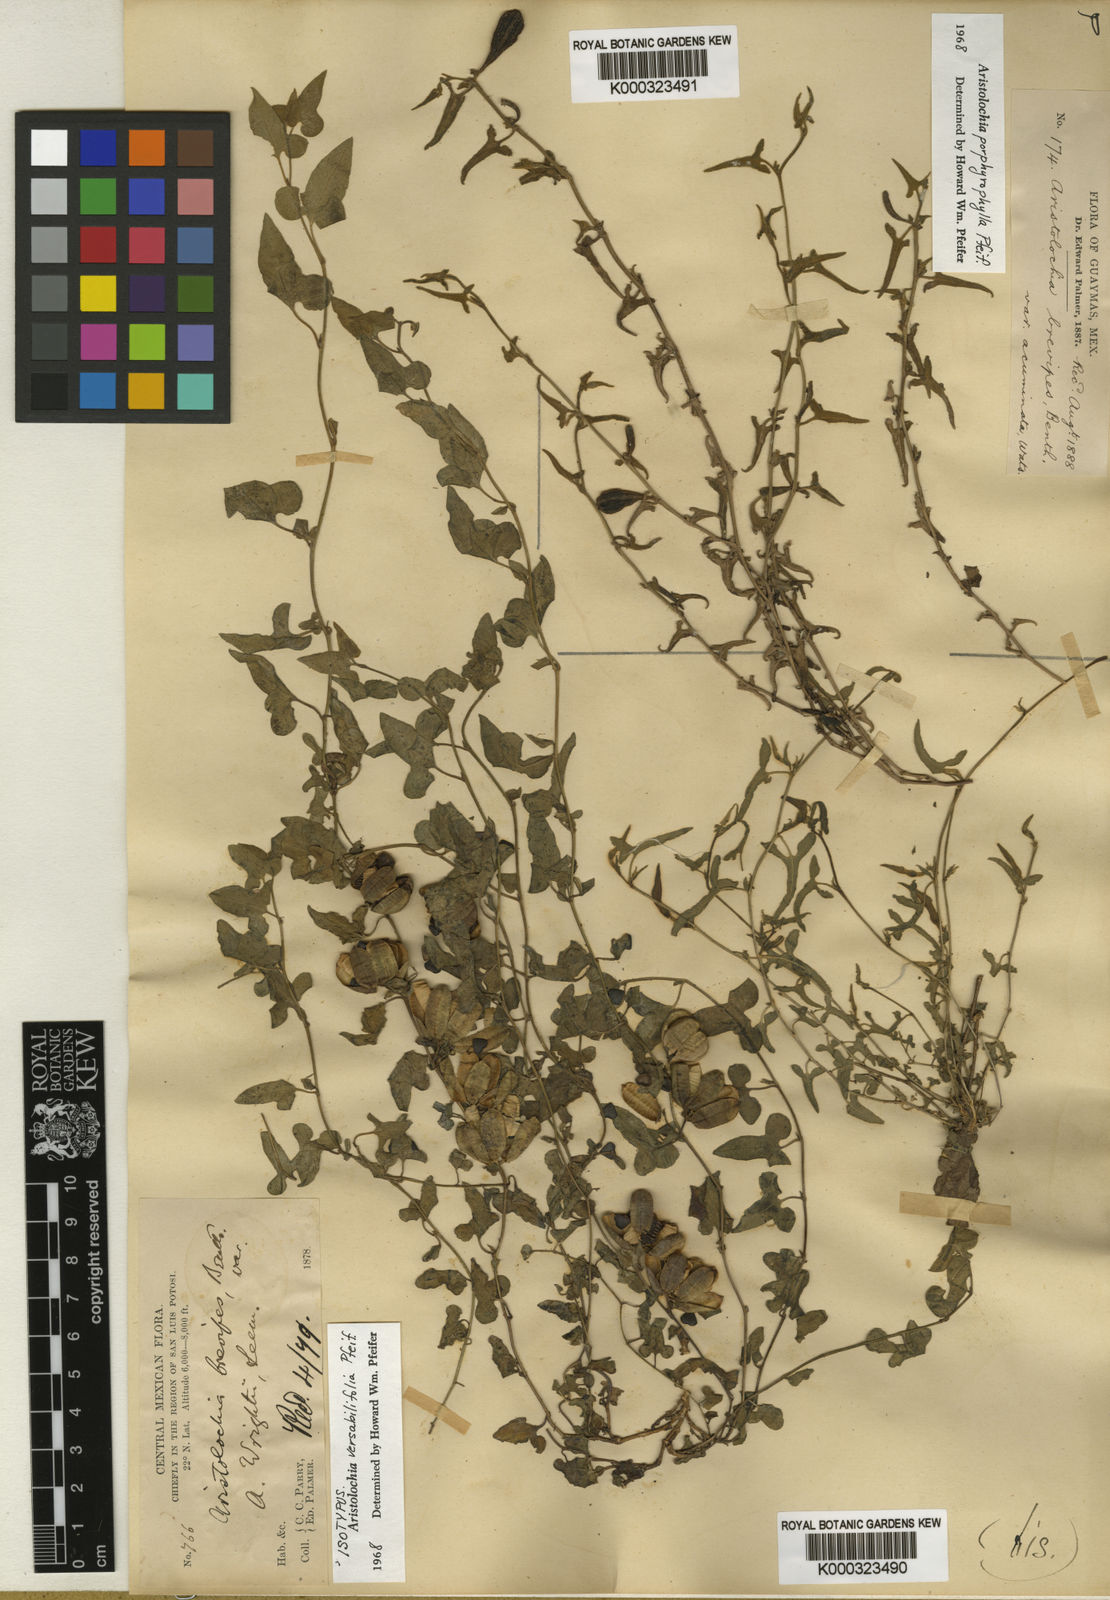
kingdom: Plantae
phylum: Tracheophyta
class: Magnoliopsida
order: Piperales
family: Aristolochiaceae
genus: Aristolochia
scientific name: Aristolochia versabilifolia
